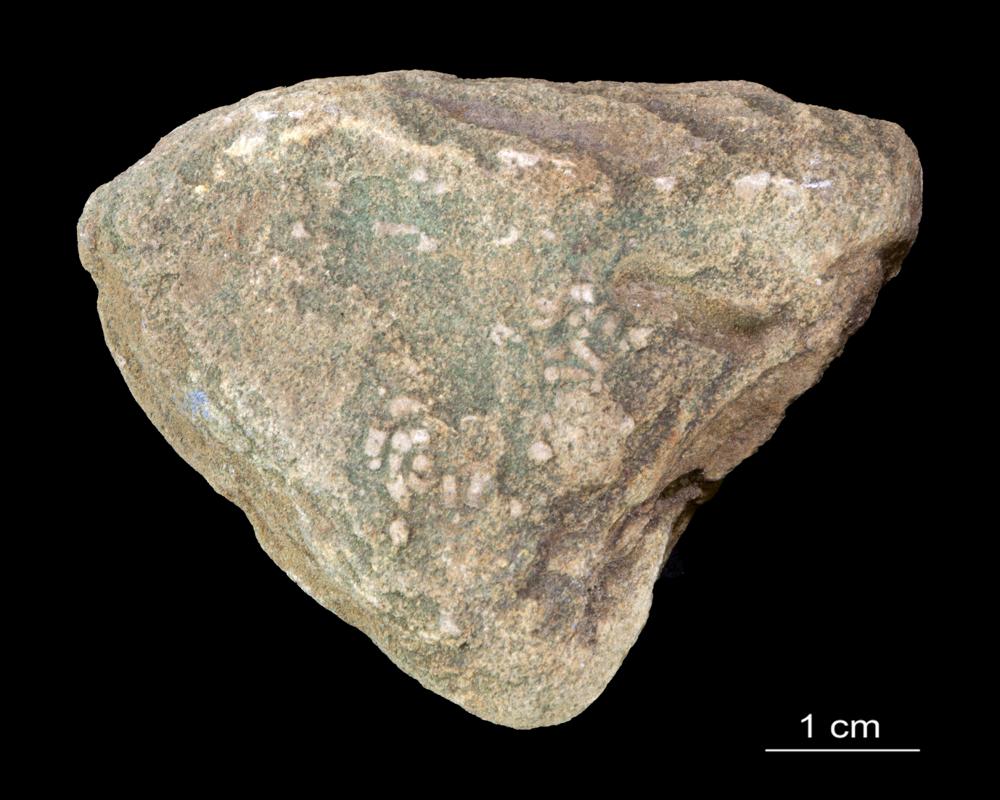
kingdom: Animalia
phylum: Annelida
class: Polychaeta
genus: Volborthella
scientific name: Volborthella tenuis
